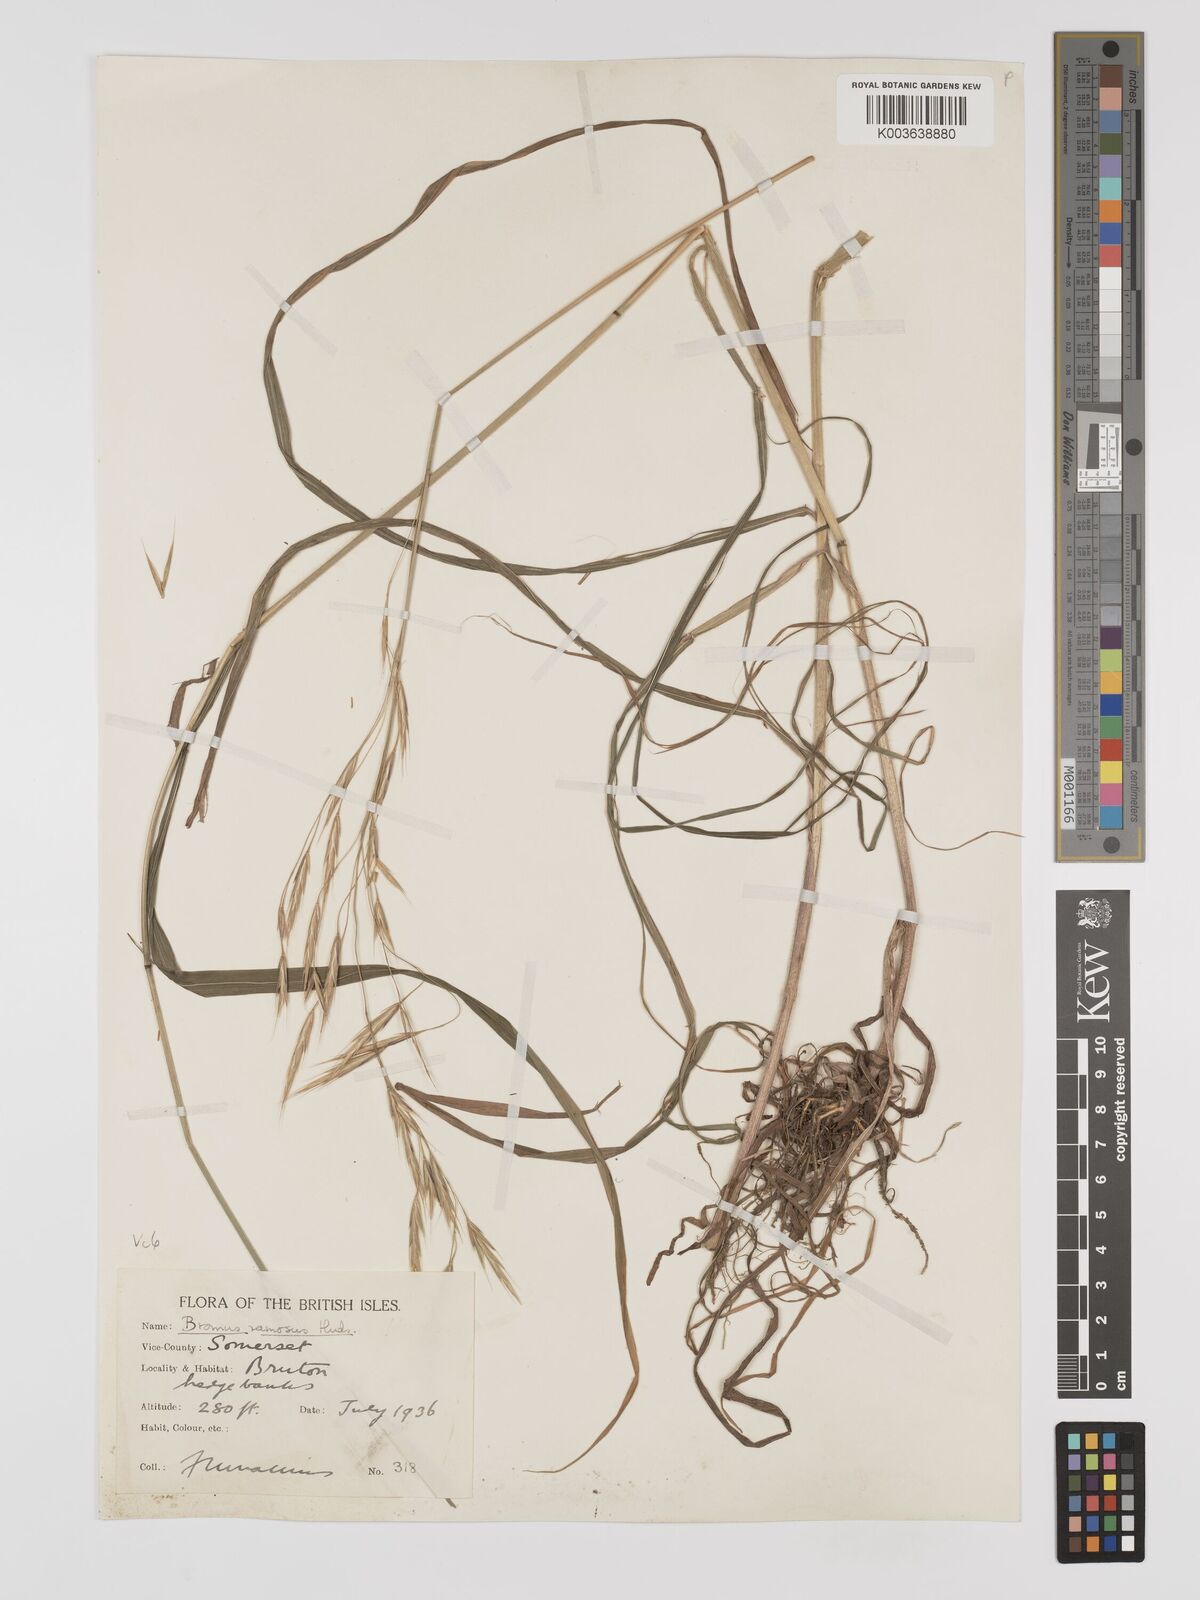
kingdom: Plantae
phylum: Tracheophyta
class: Liliopsida
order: Poales
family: Poaceae
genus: Brachypodium
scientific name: Brachypodium retusum
